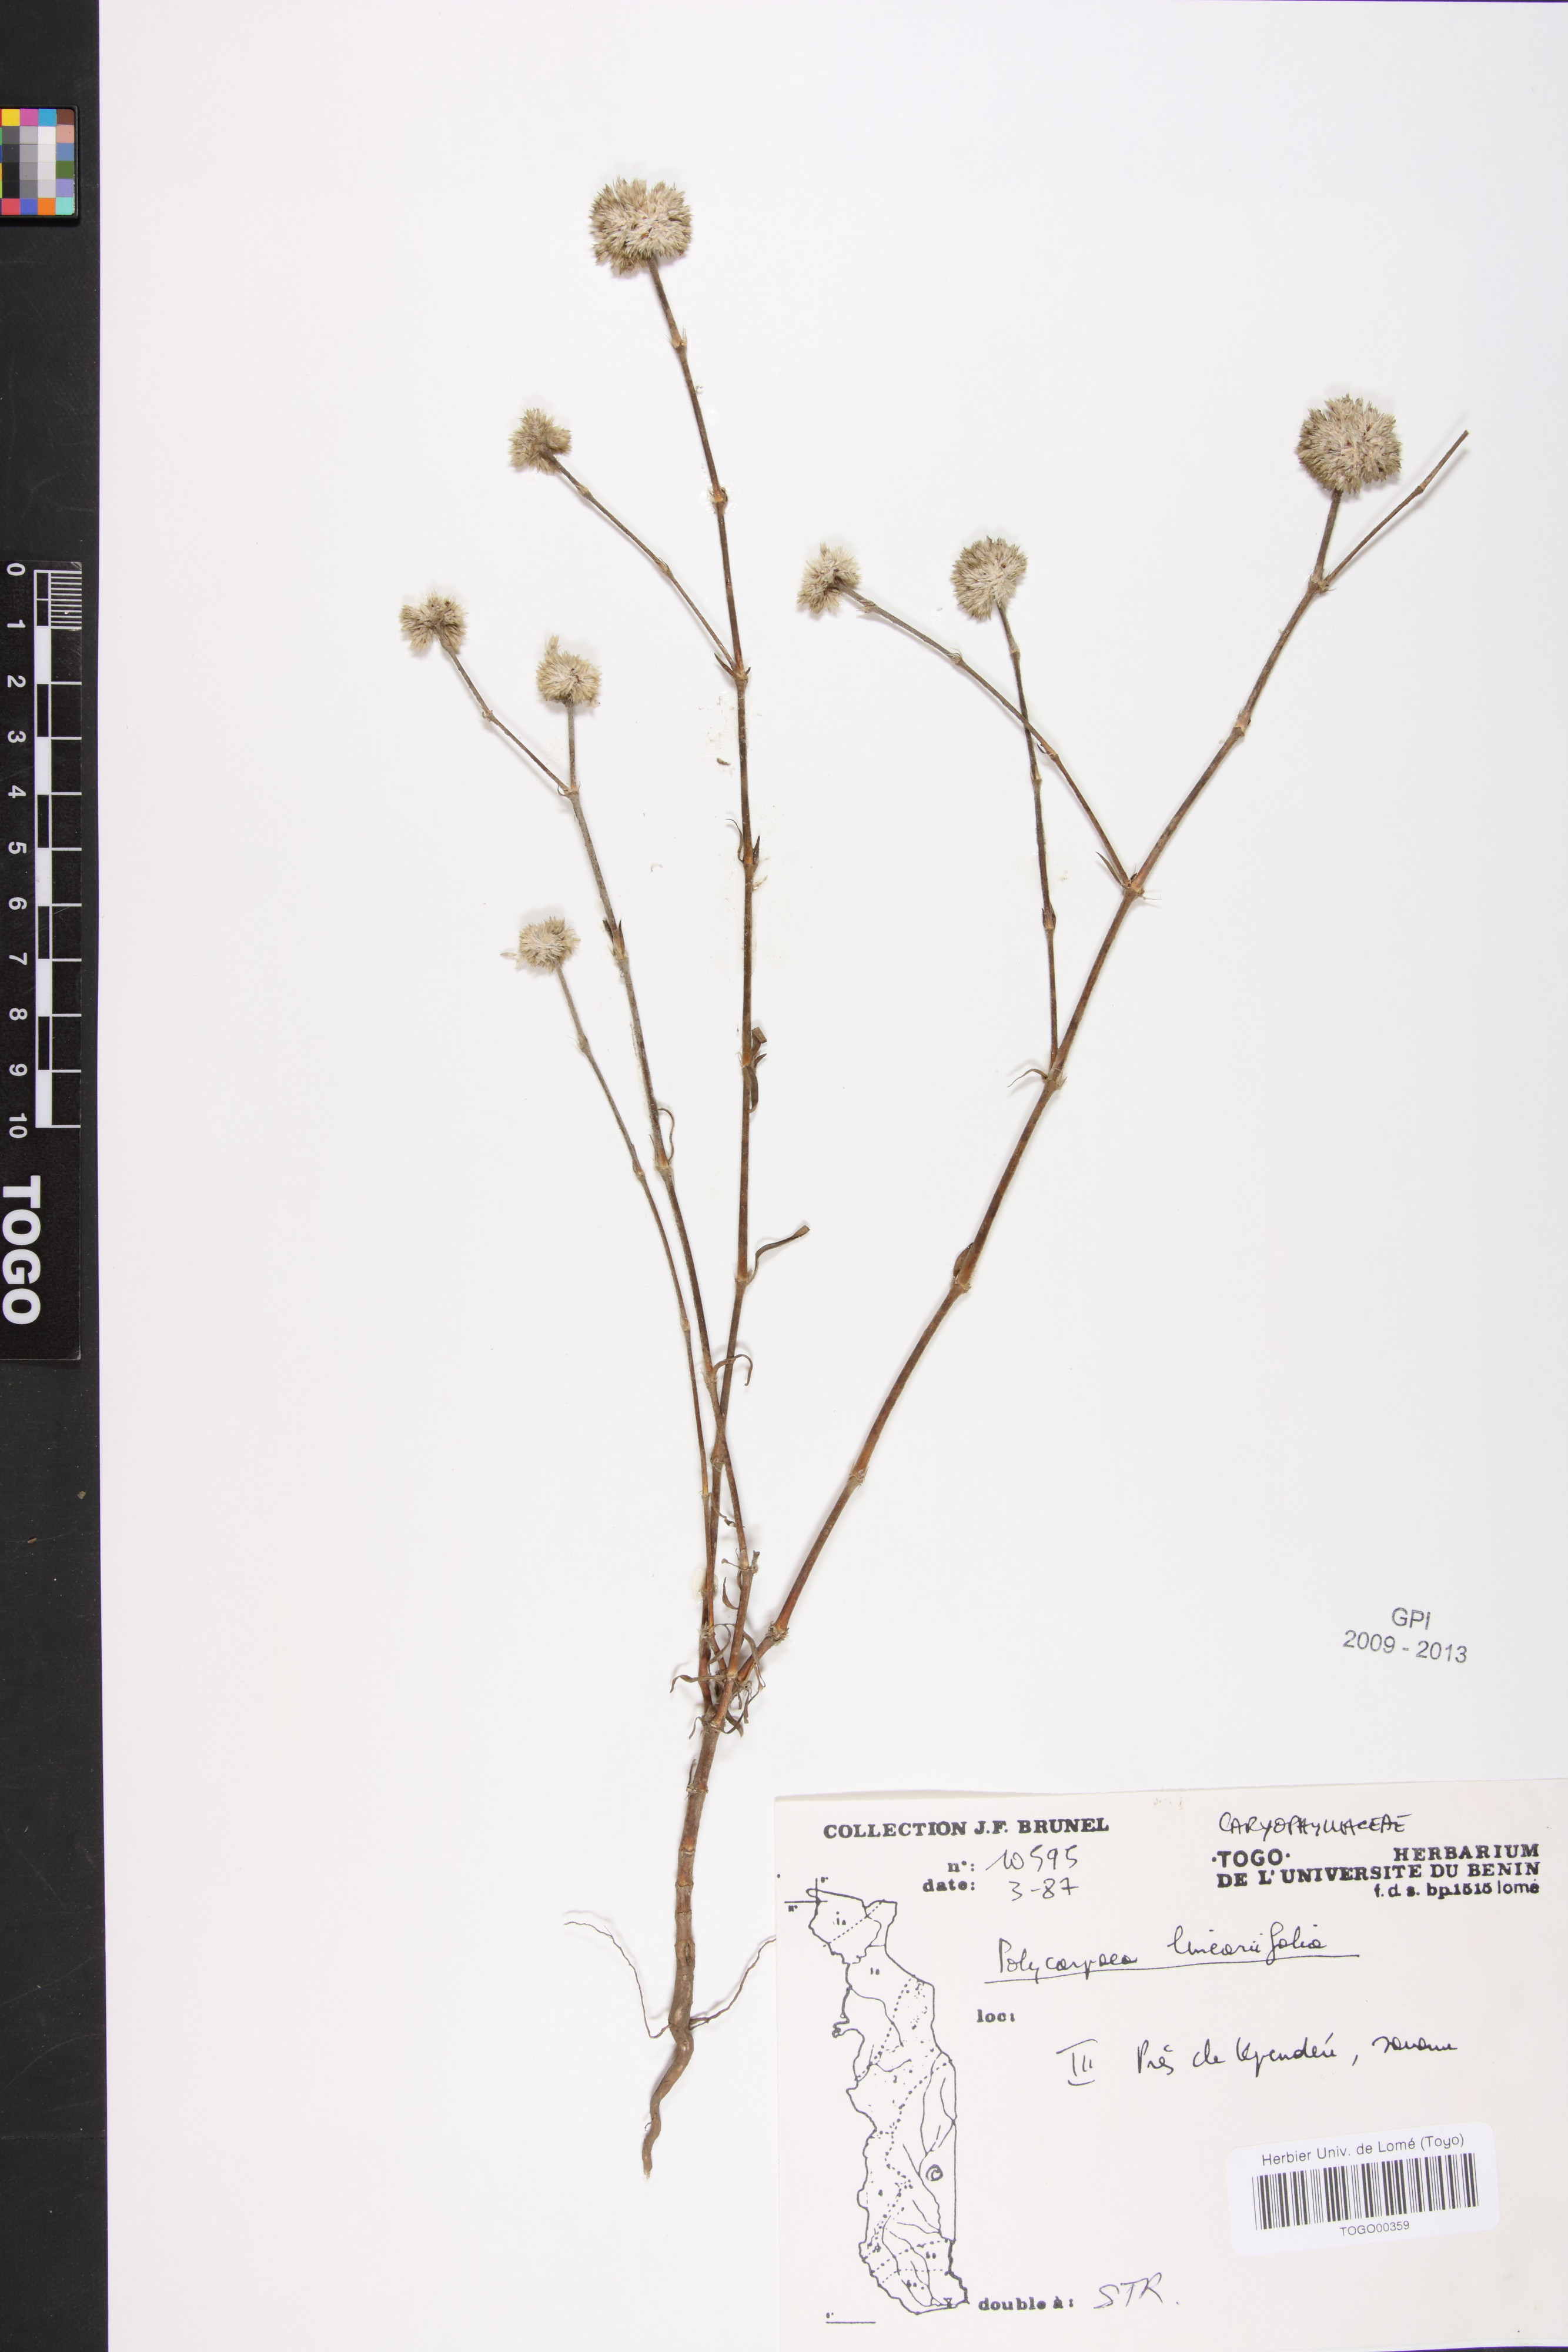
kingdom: Plantae
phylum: Tracheophyta
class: Magnoliopsida
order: Caryophyllales
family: Caryophyllaceae
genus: Polycarpaea
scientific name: Polycarpaea linearifolia
